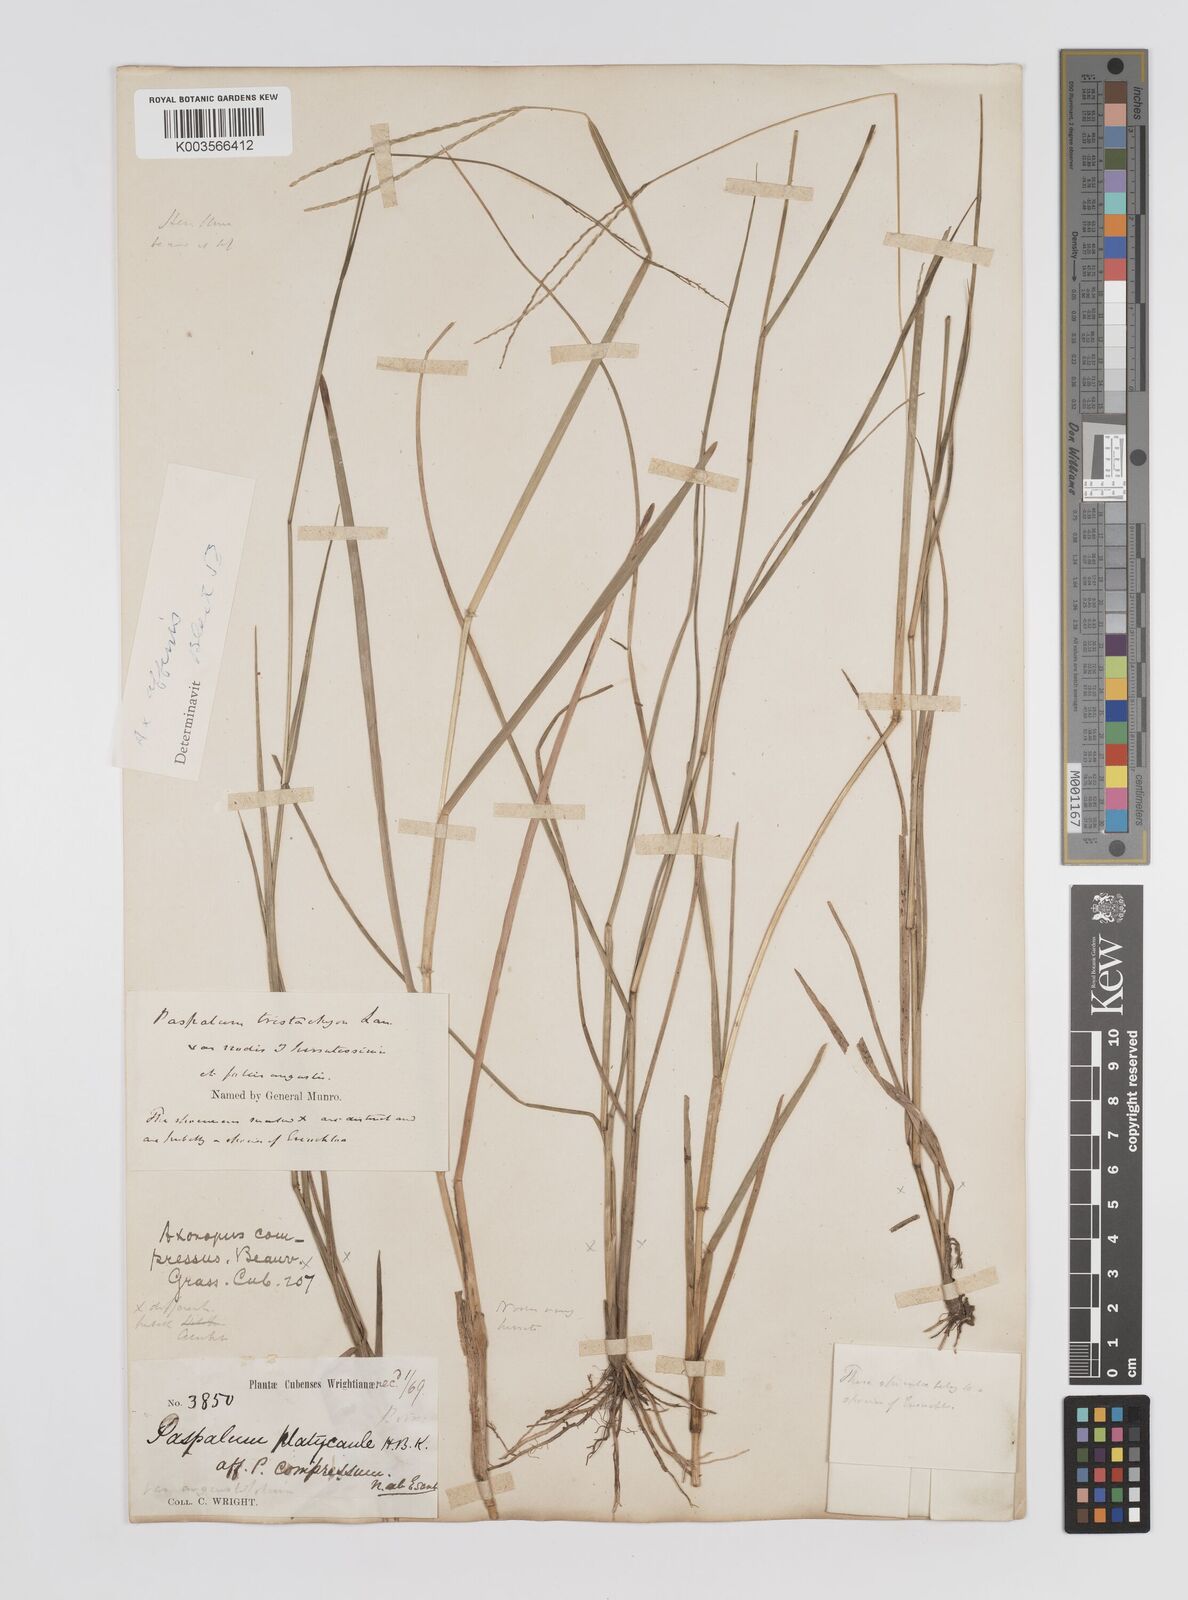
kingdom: Plantae
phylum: Tracheophyta
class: Liliopsida
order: Poales
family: Poaceae
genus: Axonopus
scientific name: Axonopus fissifolius
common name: Common carpetgrass
